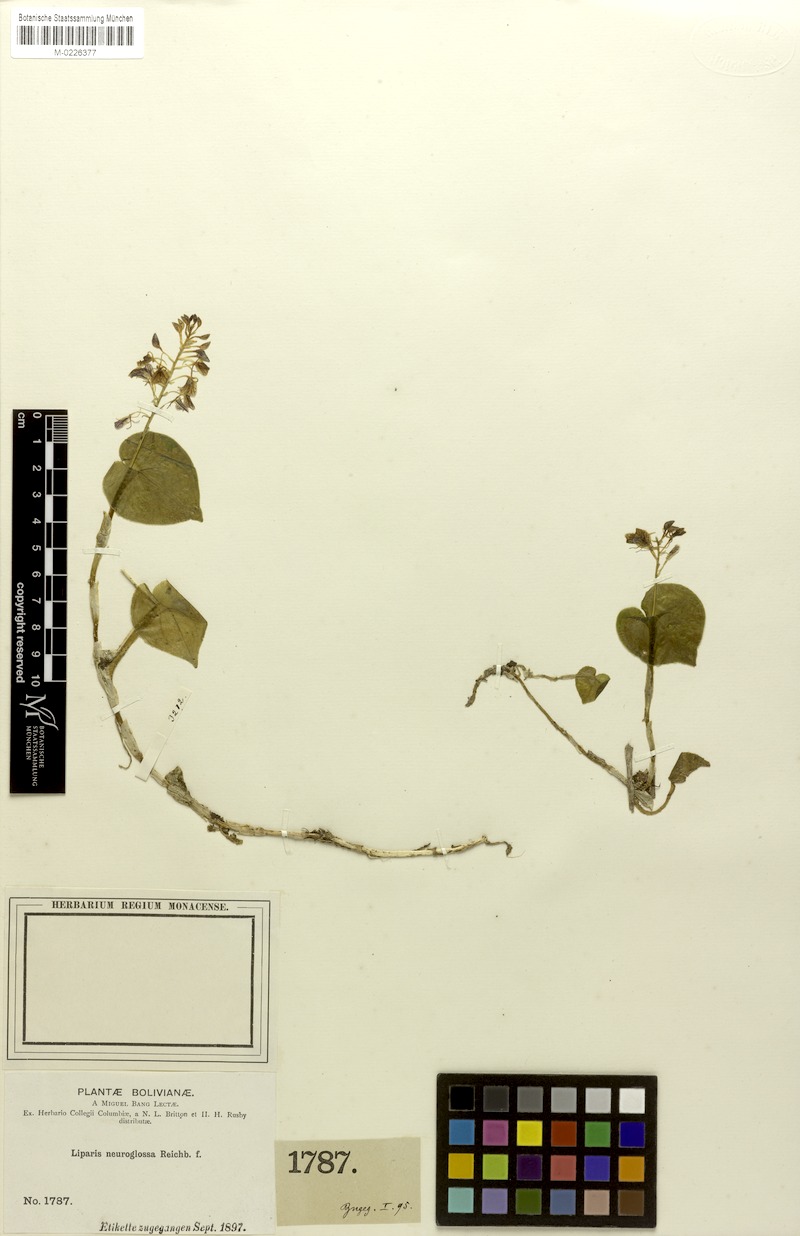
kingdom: Plantae
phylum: Tracheophyta
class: Liliopsida
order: Asparagales
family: Orchidaceae
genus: Liparis
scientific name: Liparis neuroglossa
